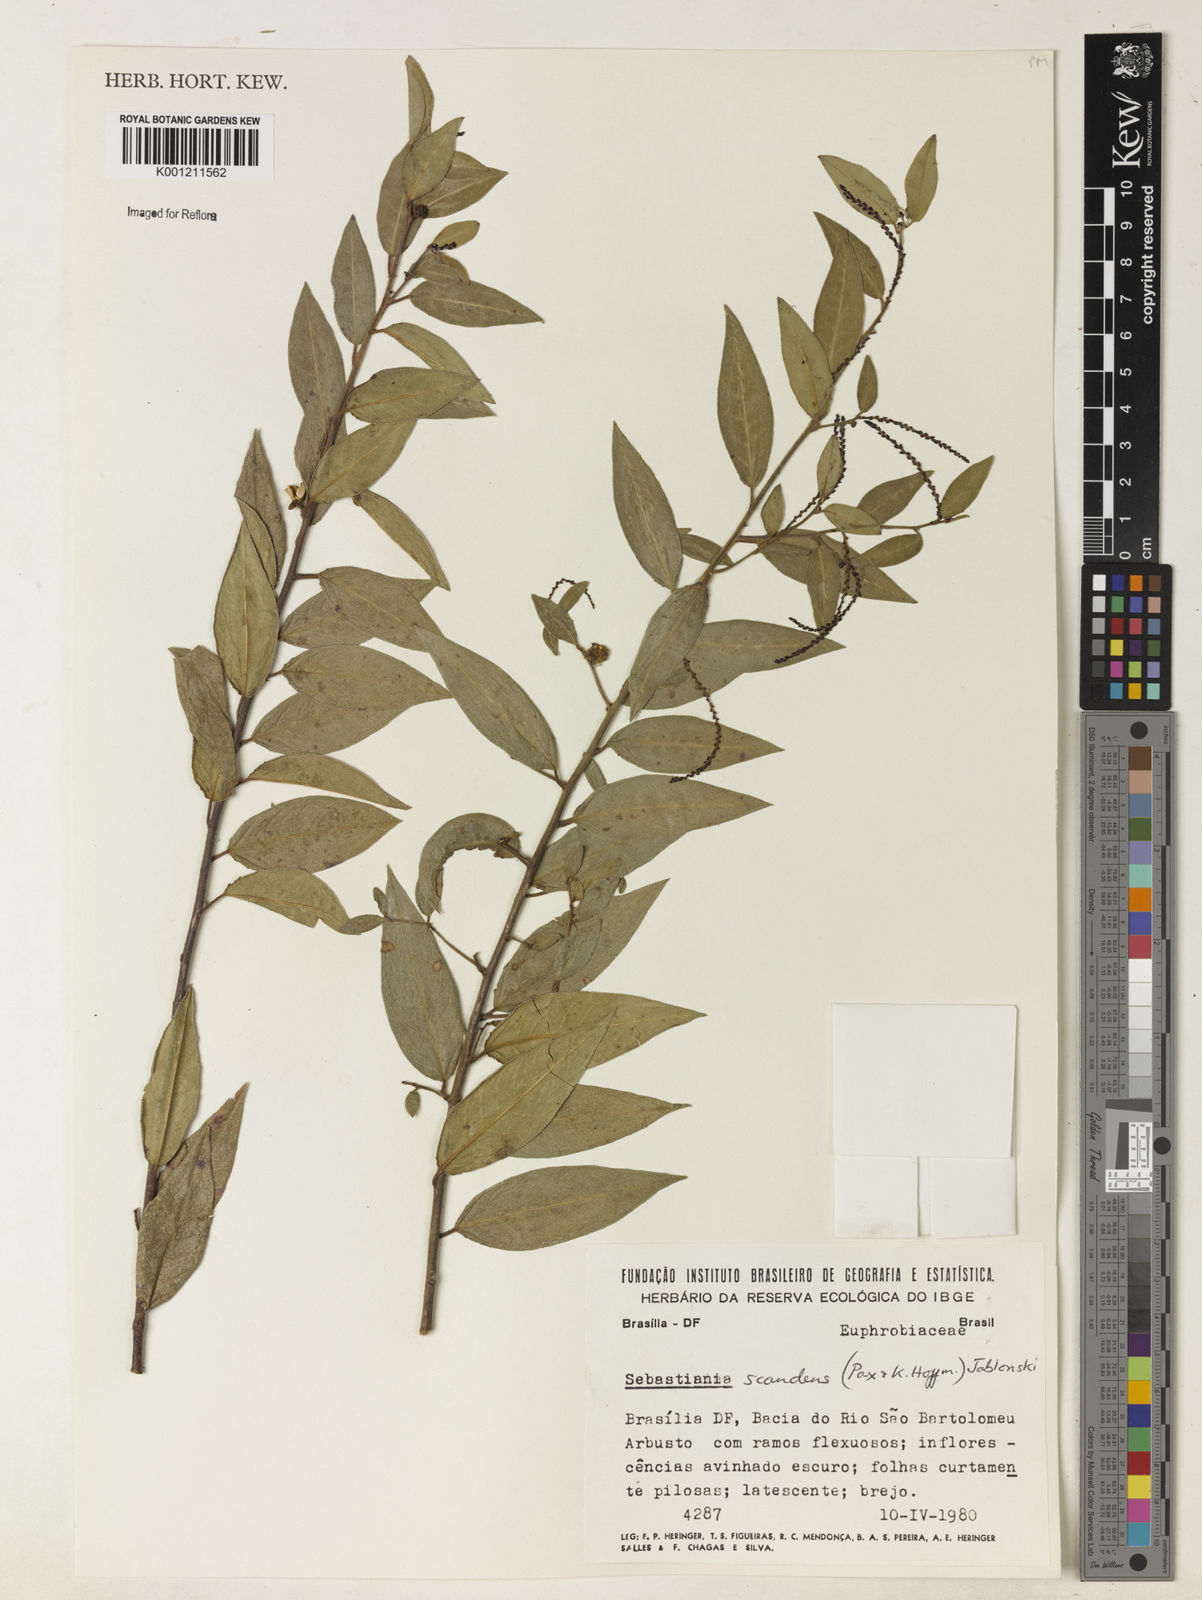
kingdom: Plantae
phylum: Tracheophyta
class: Magnoliopsida
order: Malpighiales
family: Euphorbiaceae
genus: Microstachys
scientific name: Microstachys hispida
